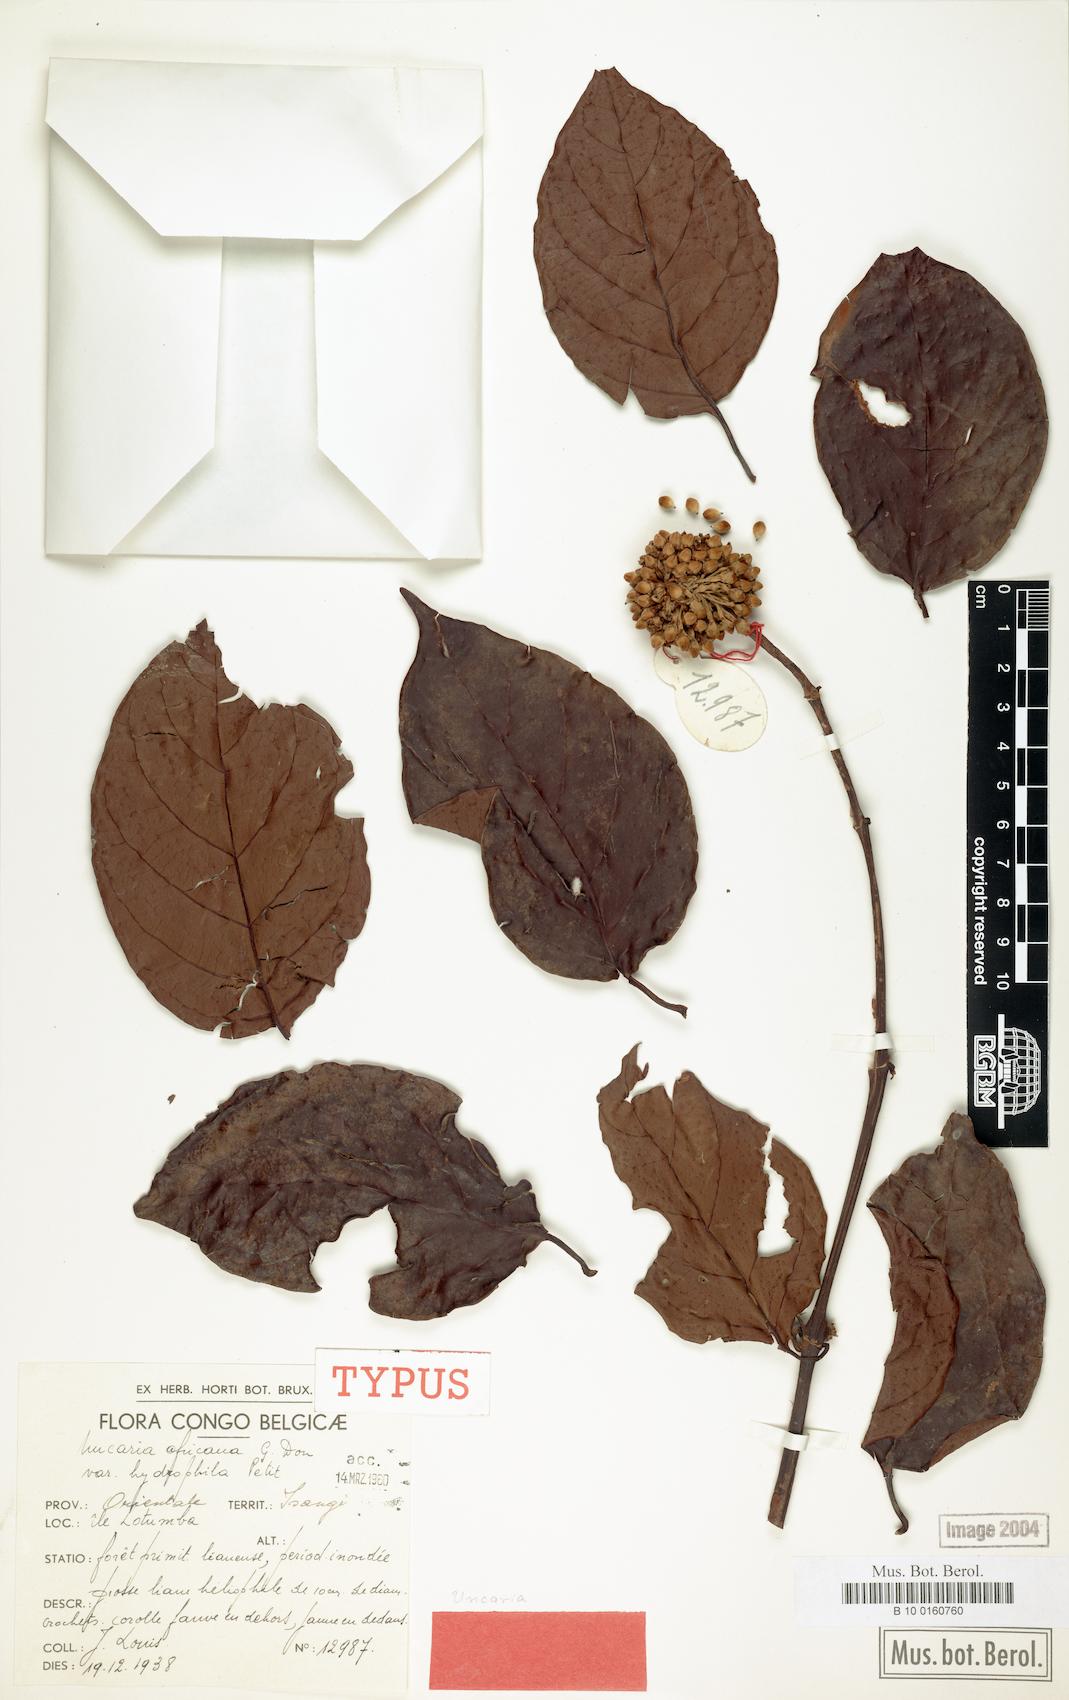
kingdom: Plantae
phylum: Tracheophyta
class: Magnoliopsida
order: Gentianales
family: Rubiaceae
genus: Uncaria
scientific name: Uncaria africana
